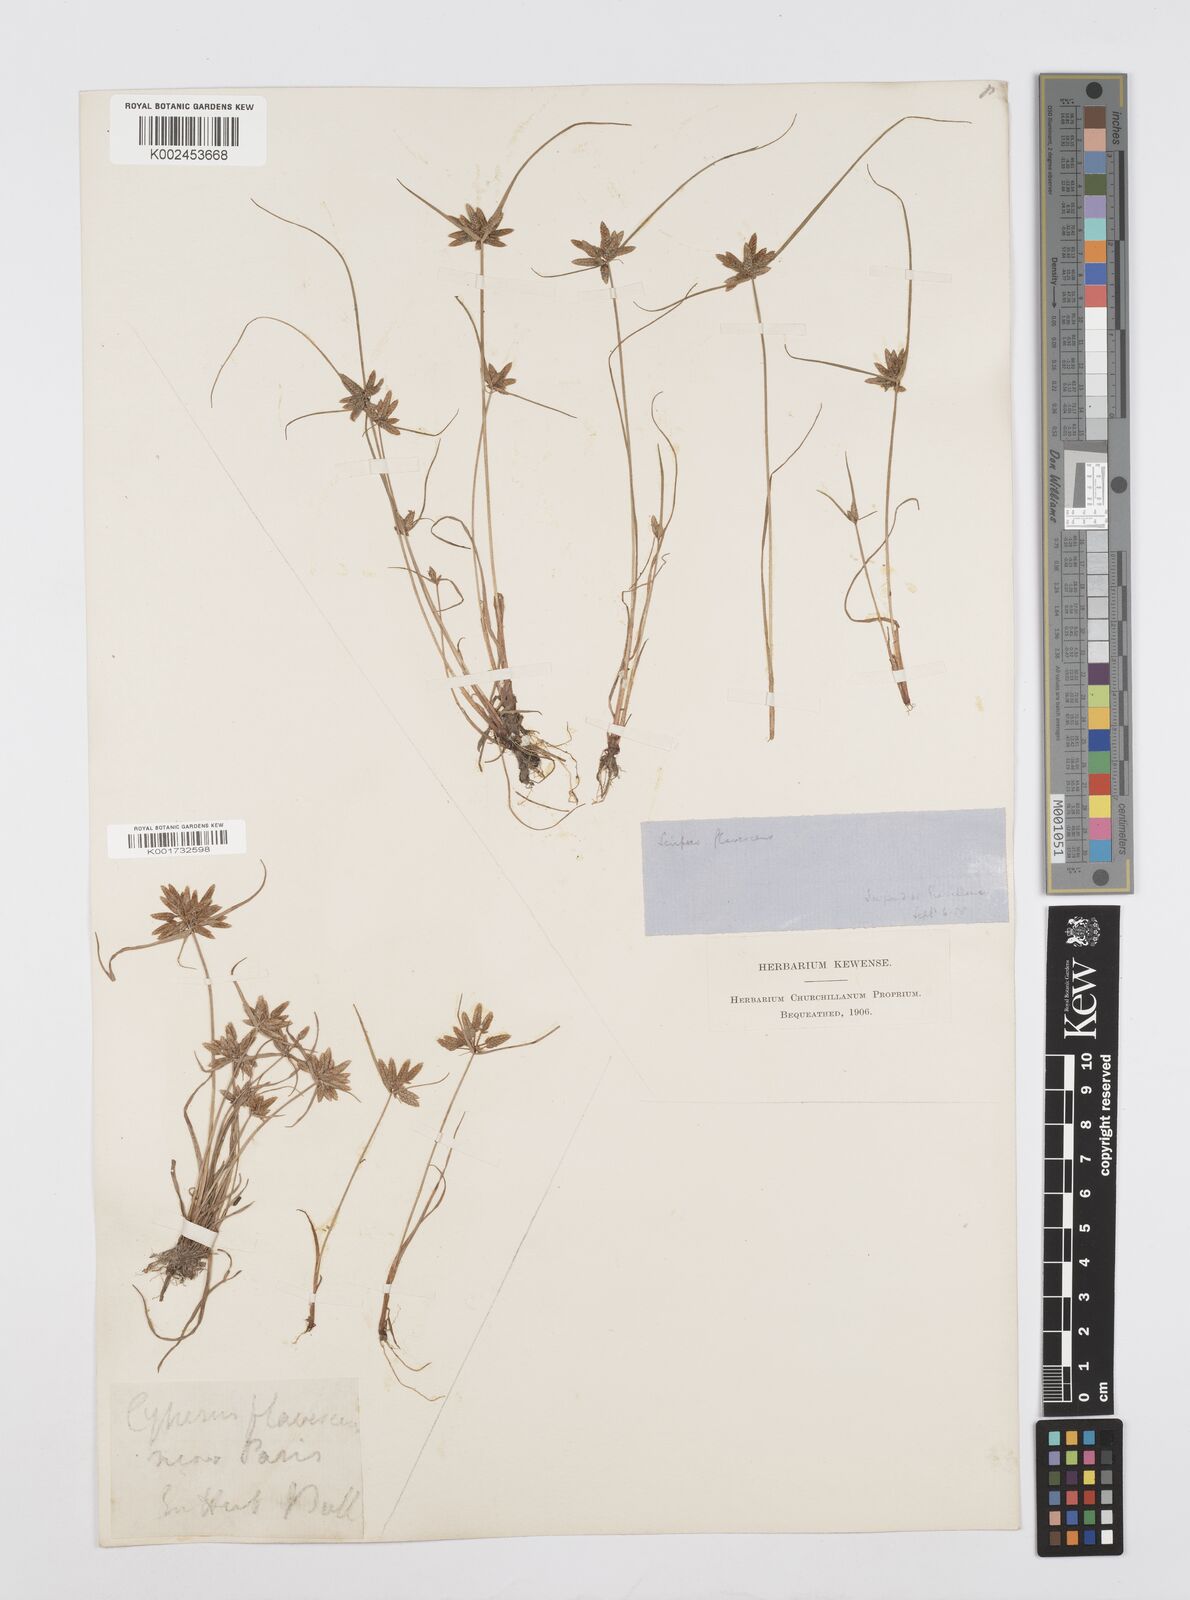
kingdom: Plantae
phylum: Tracheophyta
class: Liliopsida
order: Poales
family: Cyperaceae
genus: Cyperus
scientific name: Cyperus flavescens
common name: Yellow galingale
